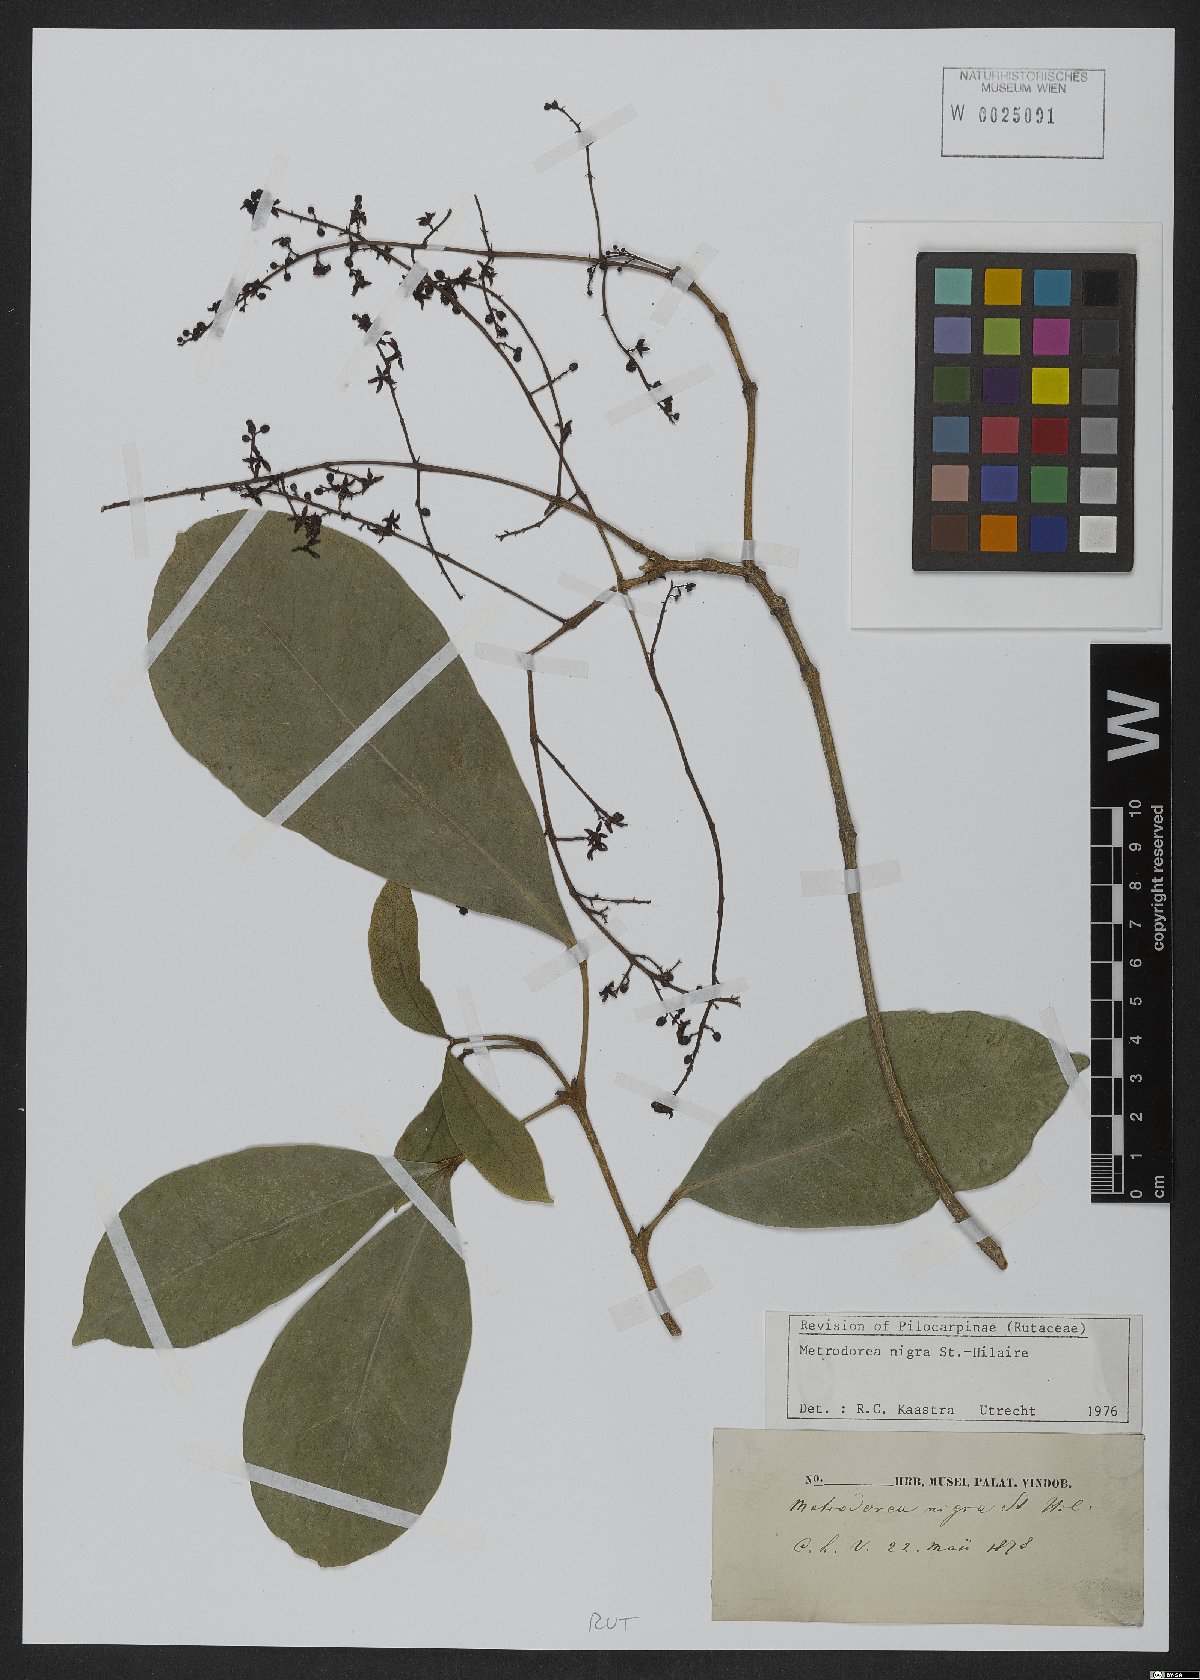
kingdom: Plantae
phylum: Tracheophyta
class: Magnoliopsida
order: Sapindales
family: Rutaceae
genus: Metrodorea
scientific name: Metrodorea nigra
